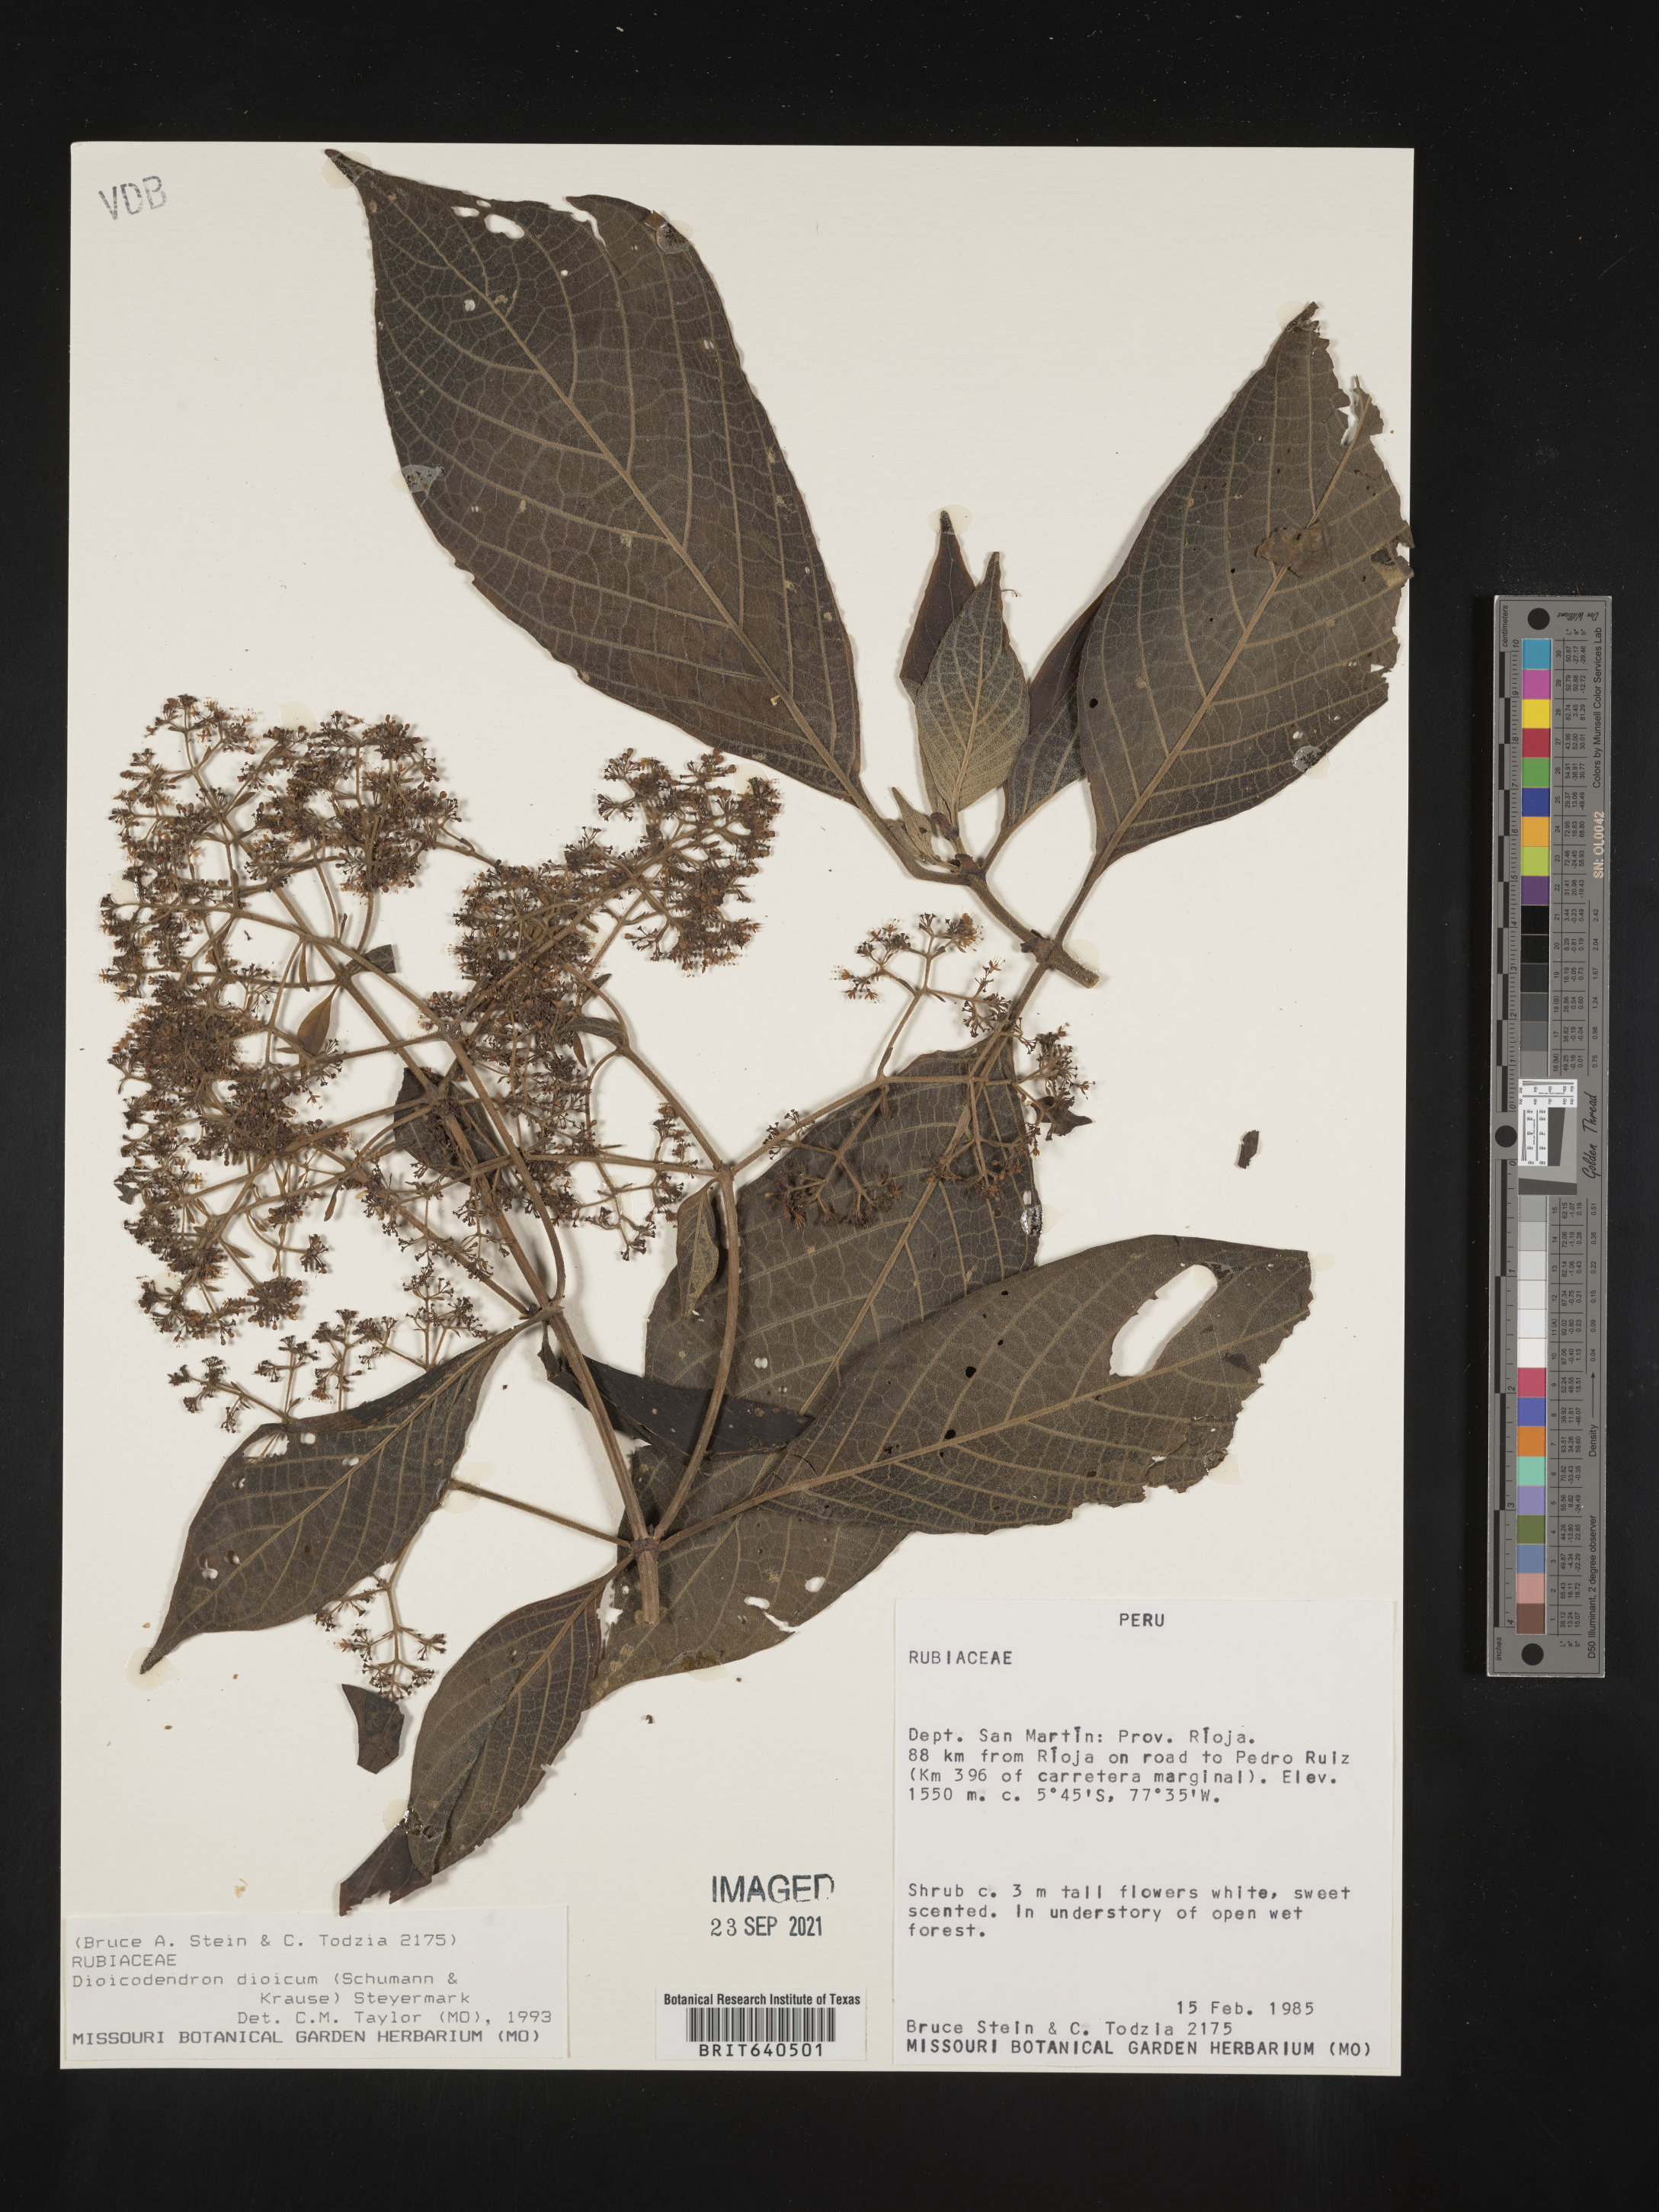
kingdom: Plantae
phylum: Tracheophyta
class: Magnoliopsida
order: Gentianales
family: Rubiaceae
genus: Dioicodendron
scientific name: Dioicodendron
